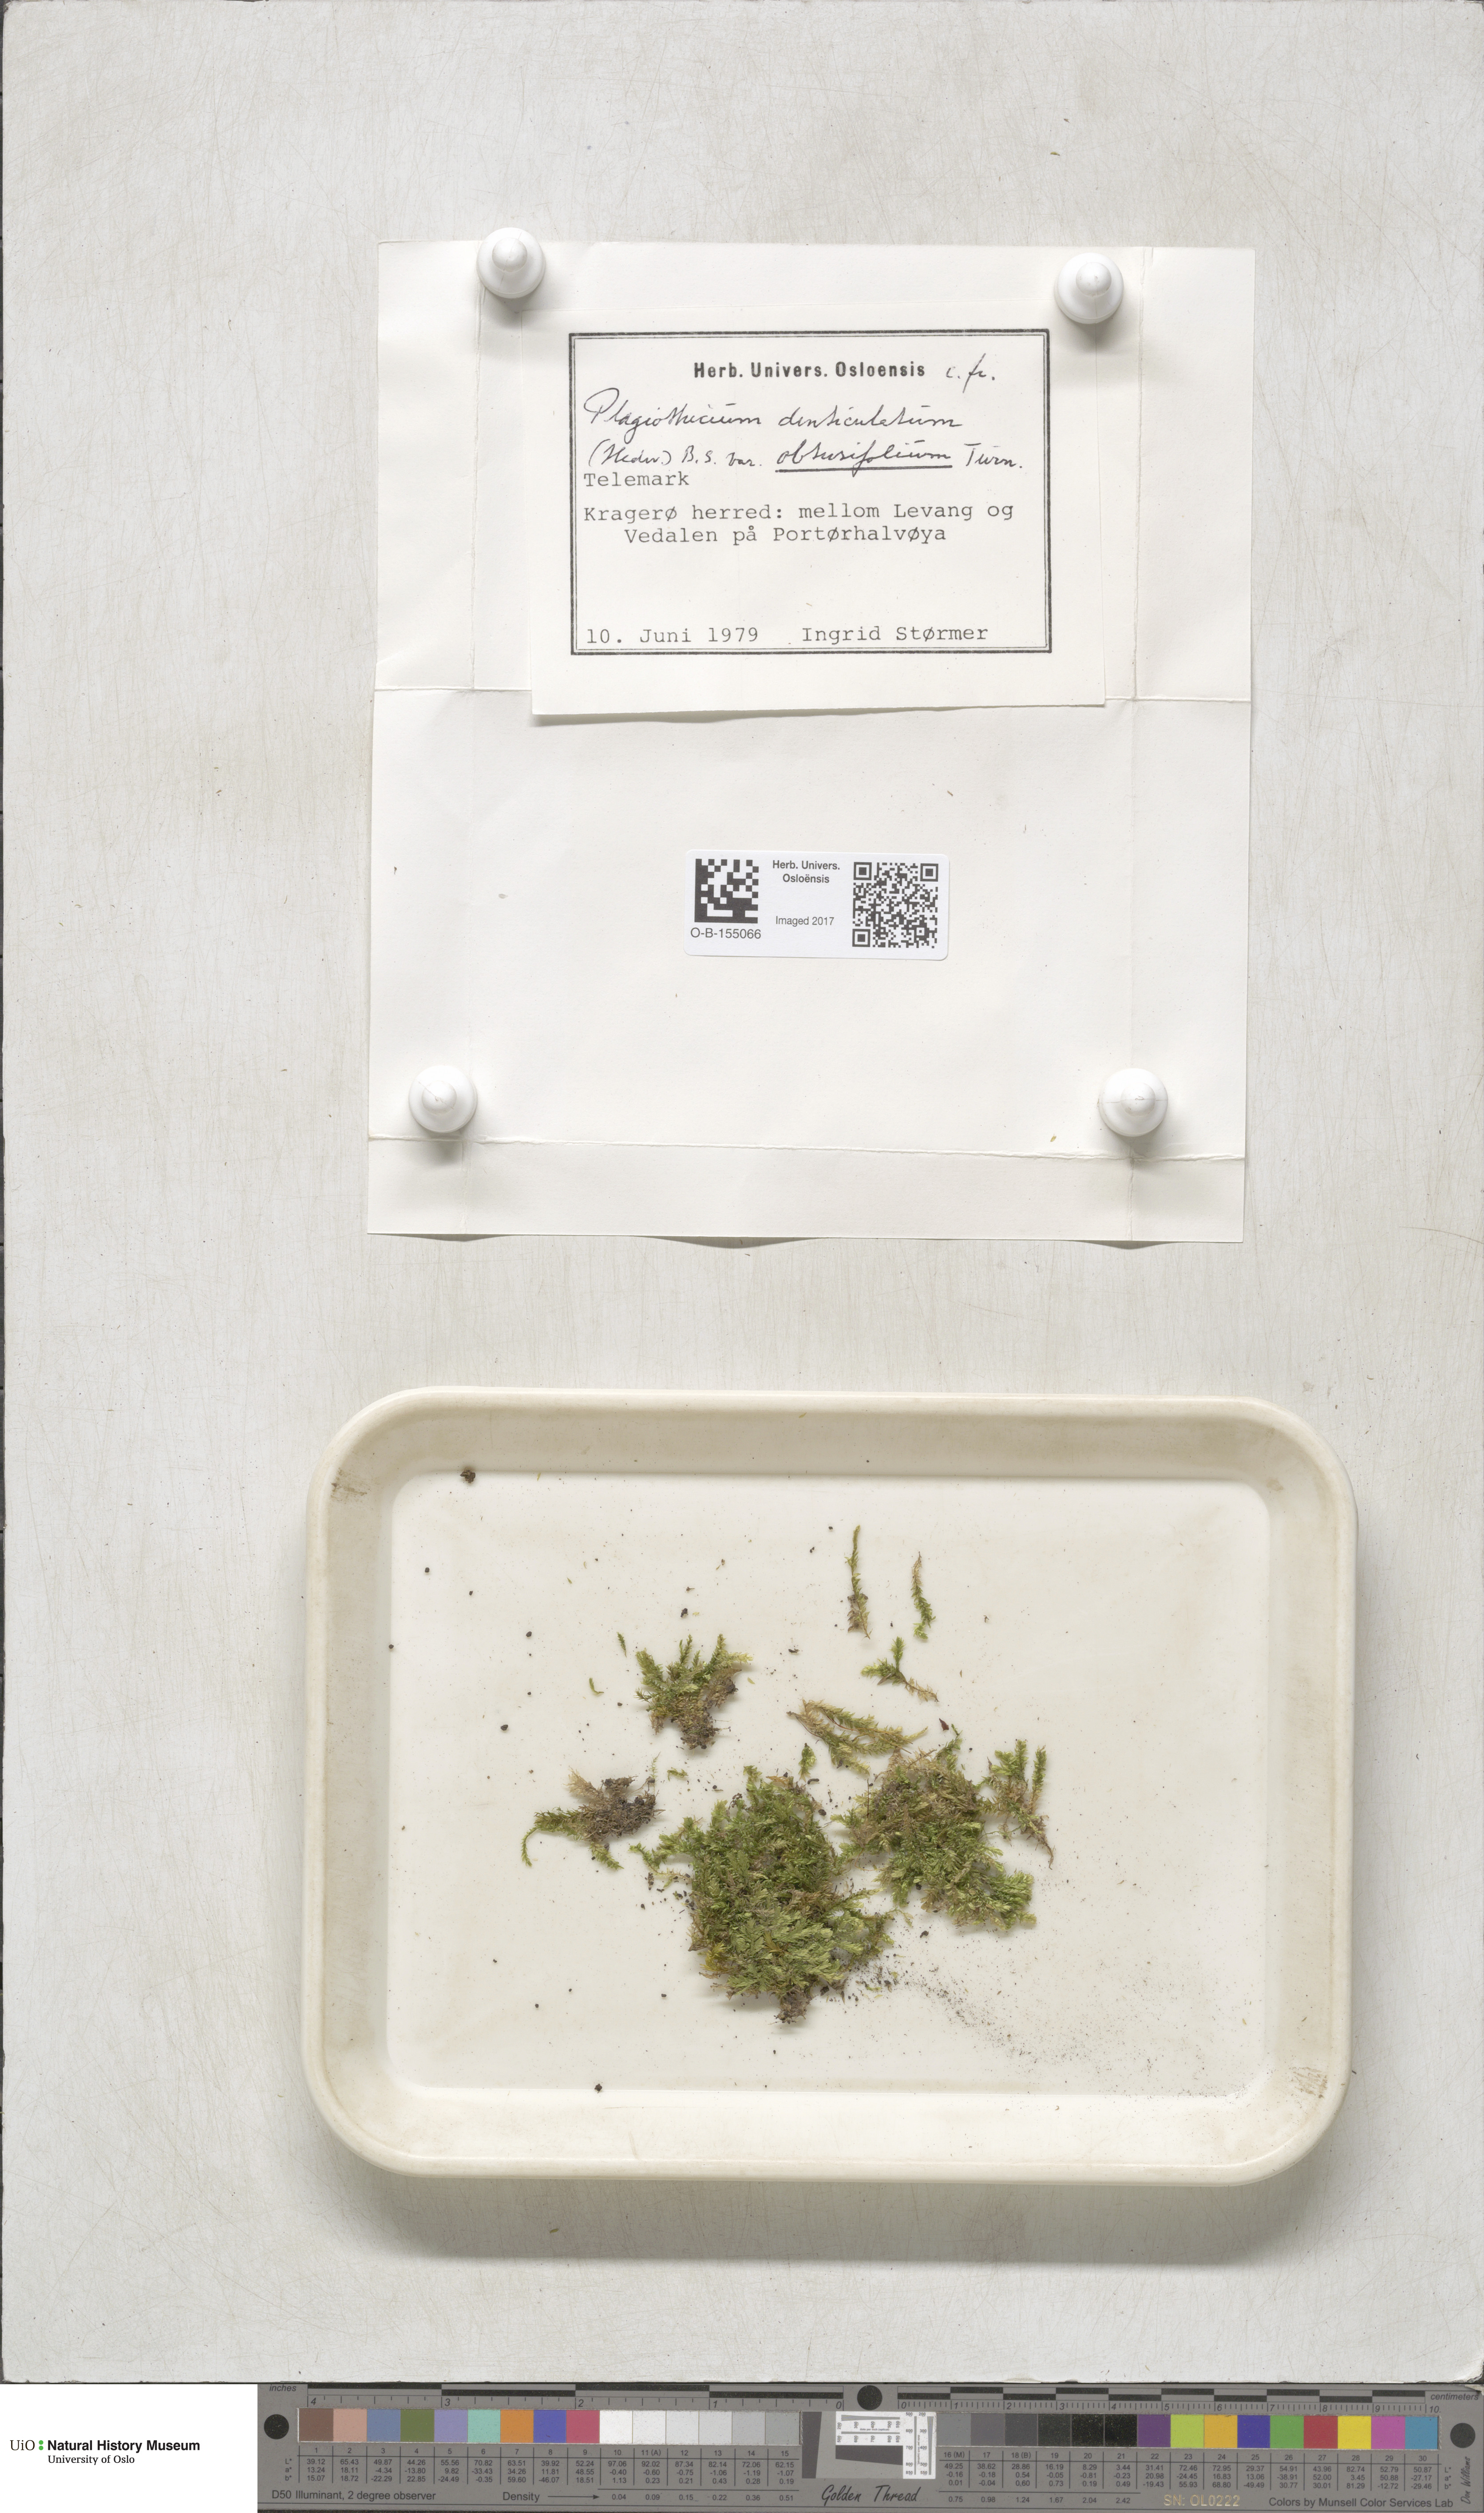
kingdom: Plantae
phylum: Bryophyta
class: Bryopsida
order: Hypnales
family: Plagiotheciaceae
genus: Plagiothecium
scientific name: Plagiothecium denticulatum
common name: Dented silk moss
